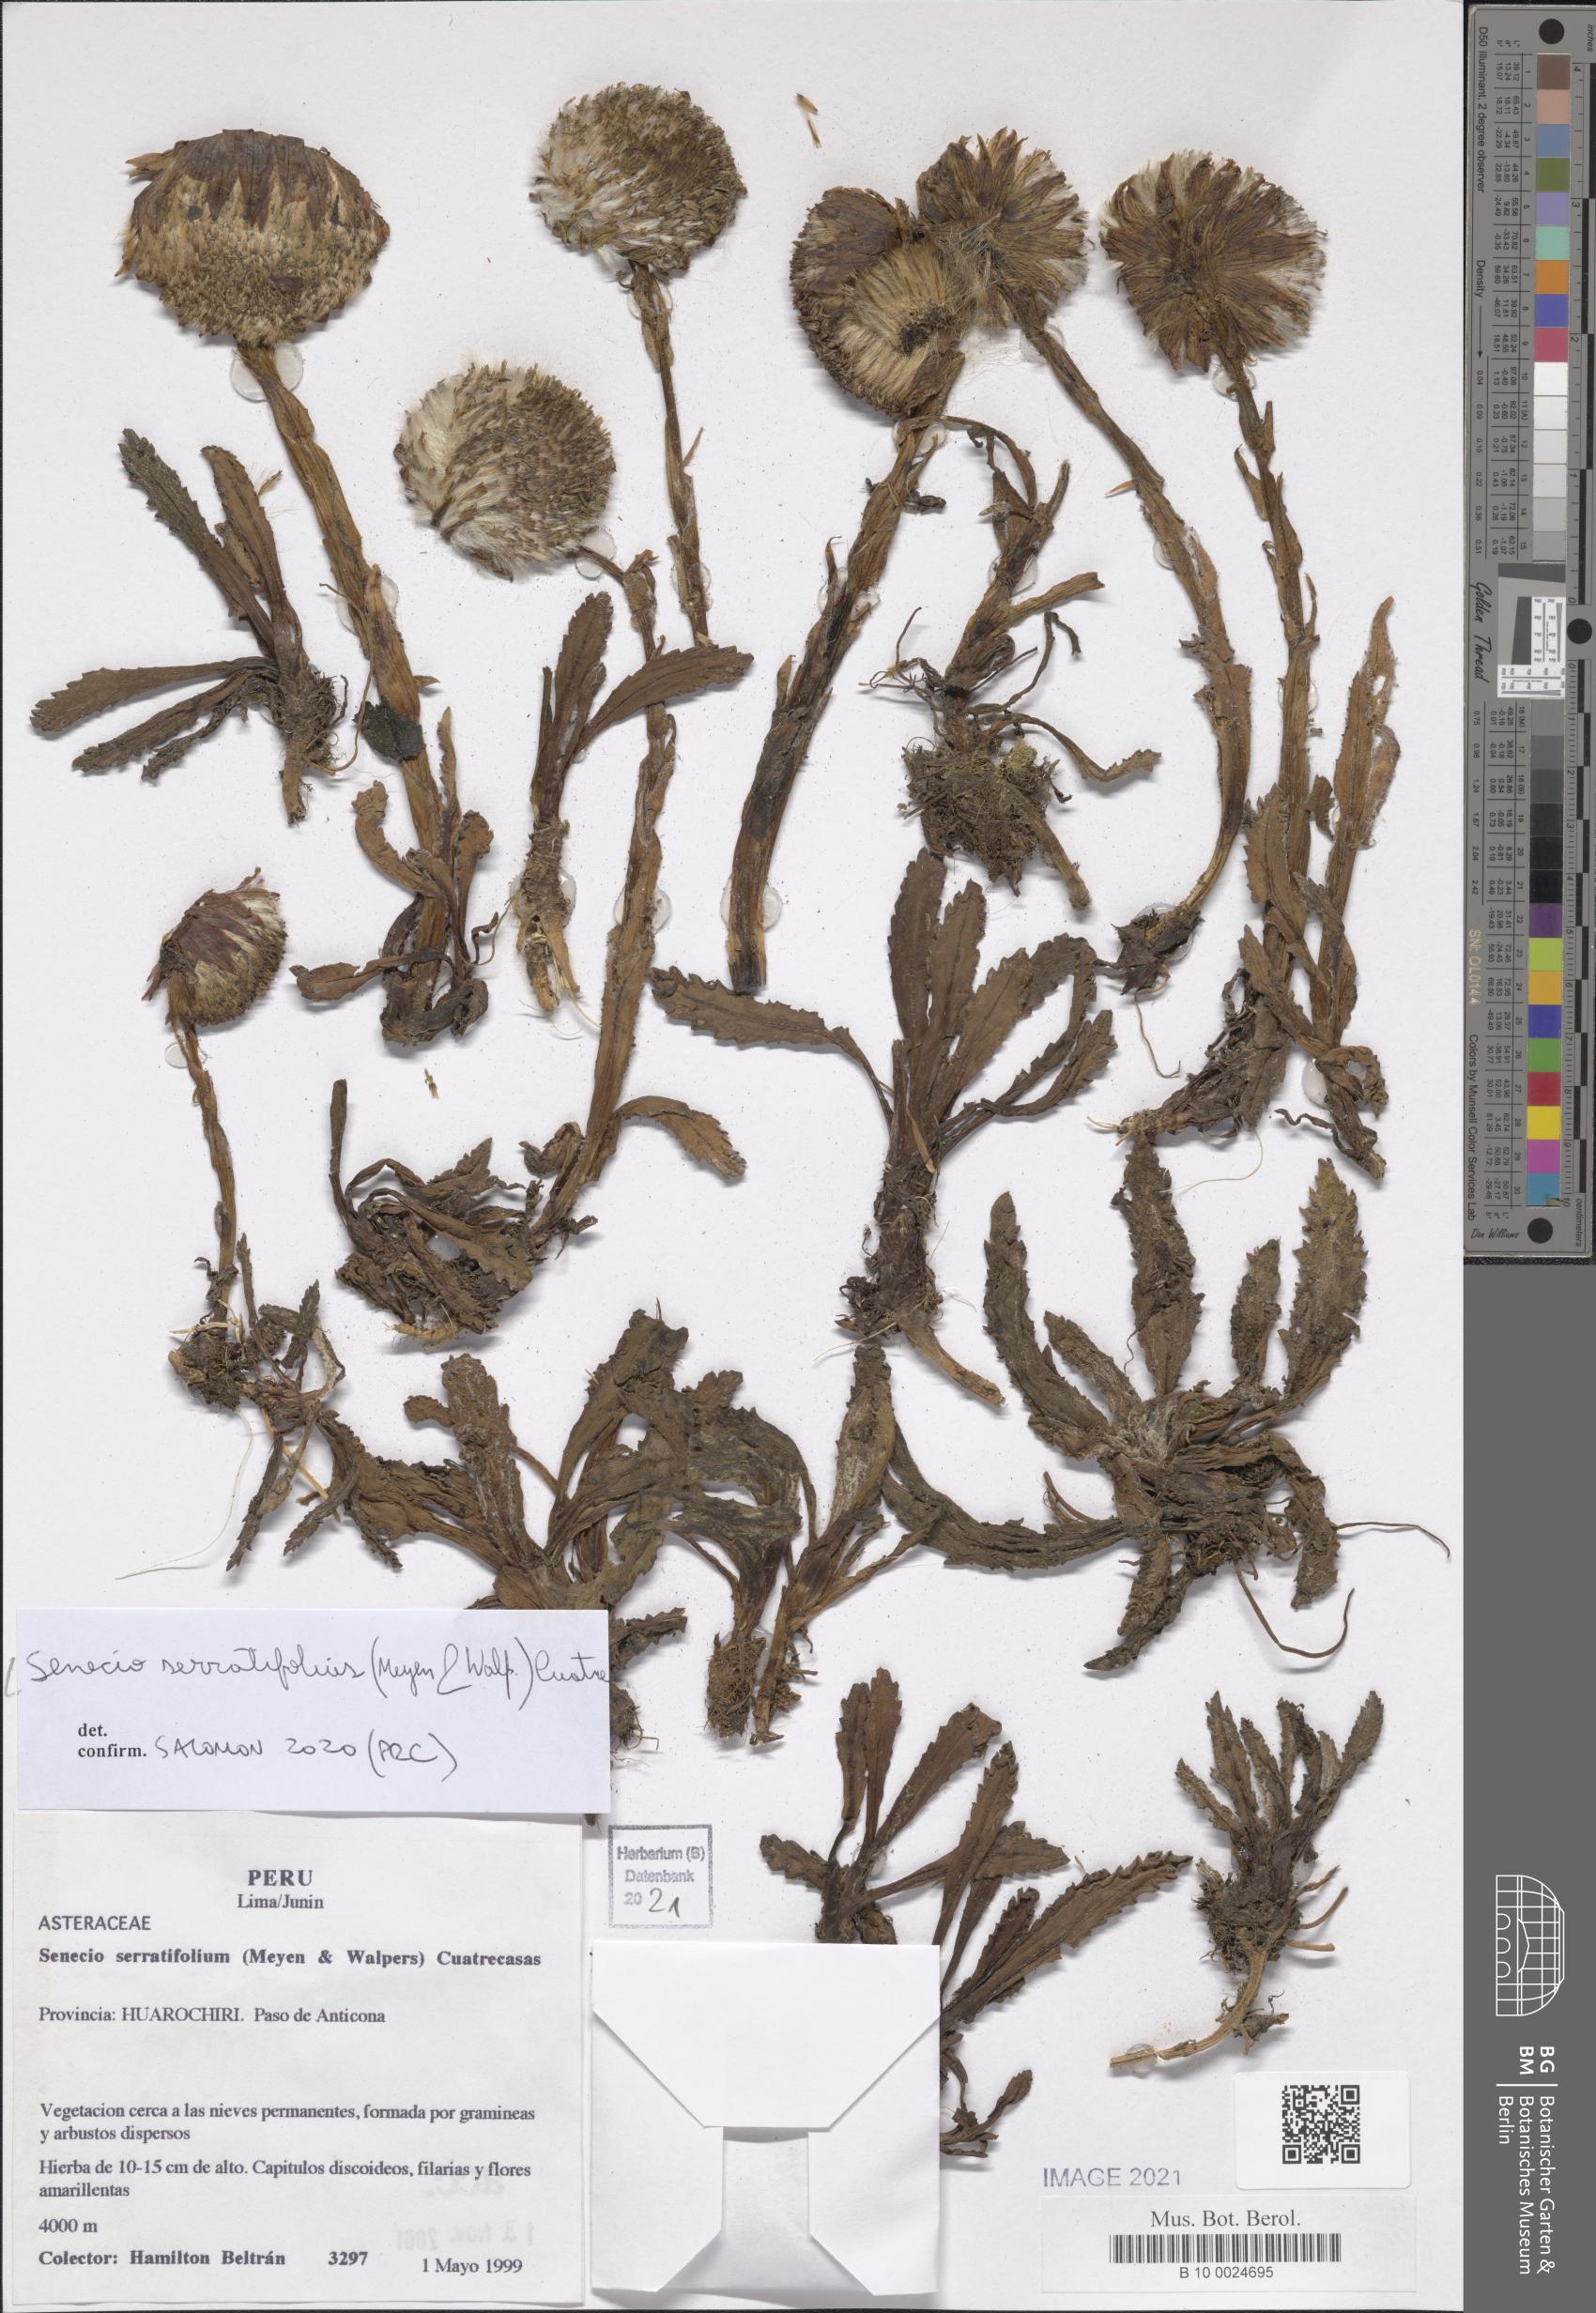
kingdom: Plantae
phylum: Tracheophyta
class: Magnoliopsida
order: Asterales
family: Asteraceae
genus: Senecio
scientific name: Senecio serratifolius
